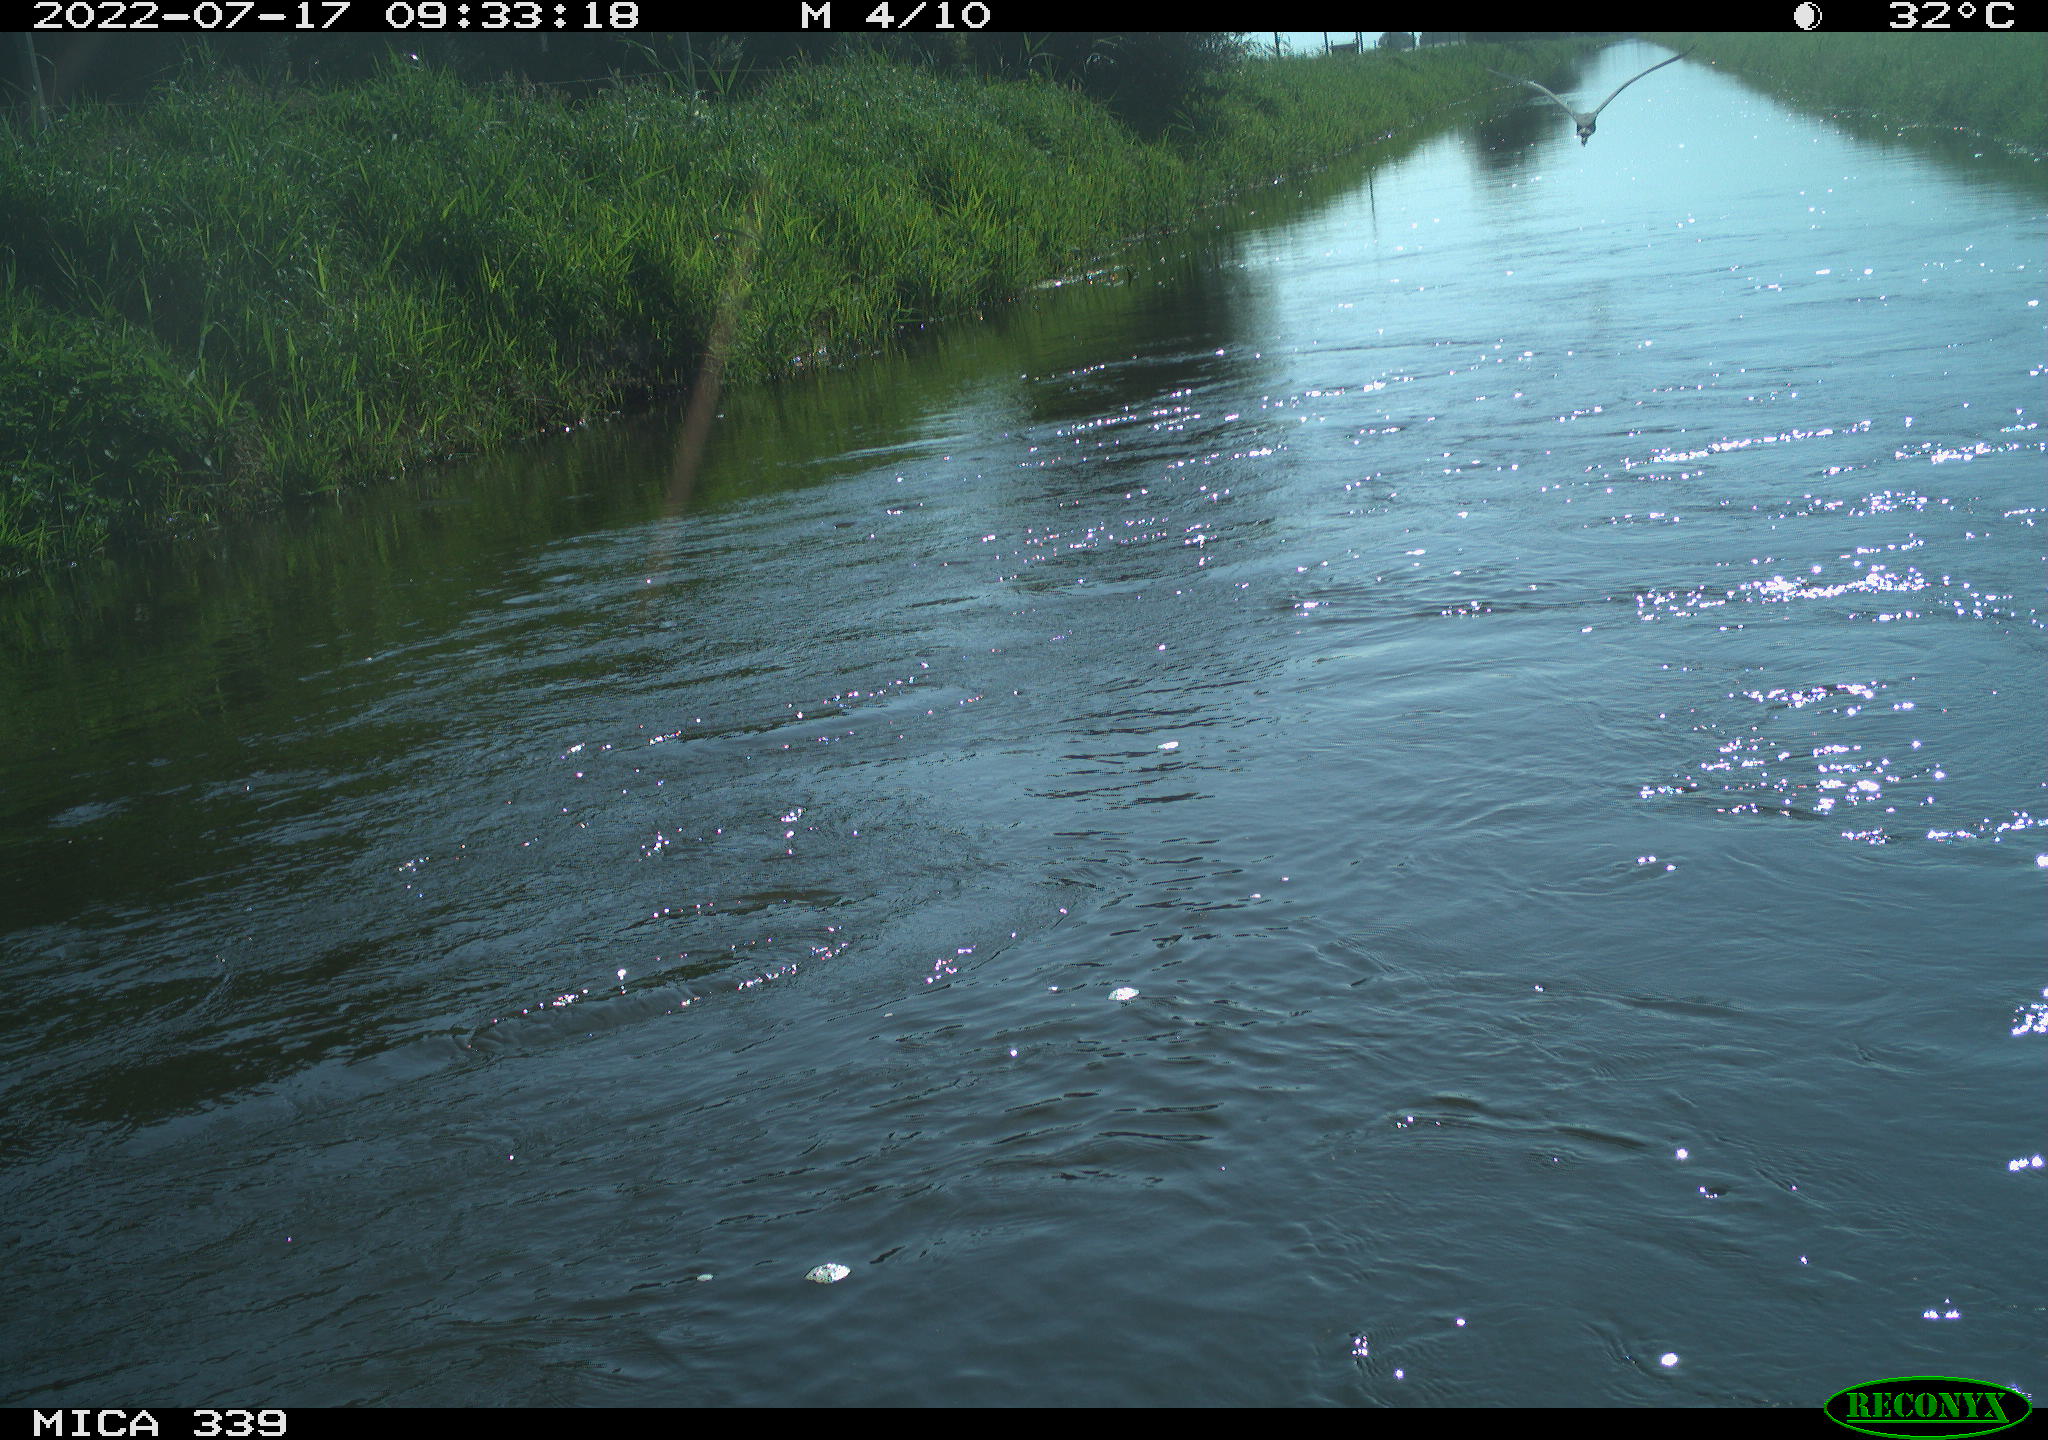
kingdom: Animalia
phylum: Chordata
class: Aves
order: Pelecaniformes
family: Ardeidae
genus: Ardea
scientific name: Ardea cinerea
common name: Grey heron
